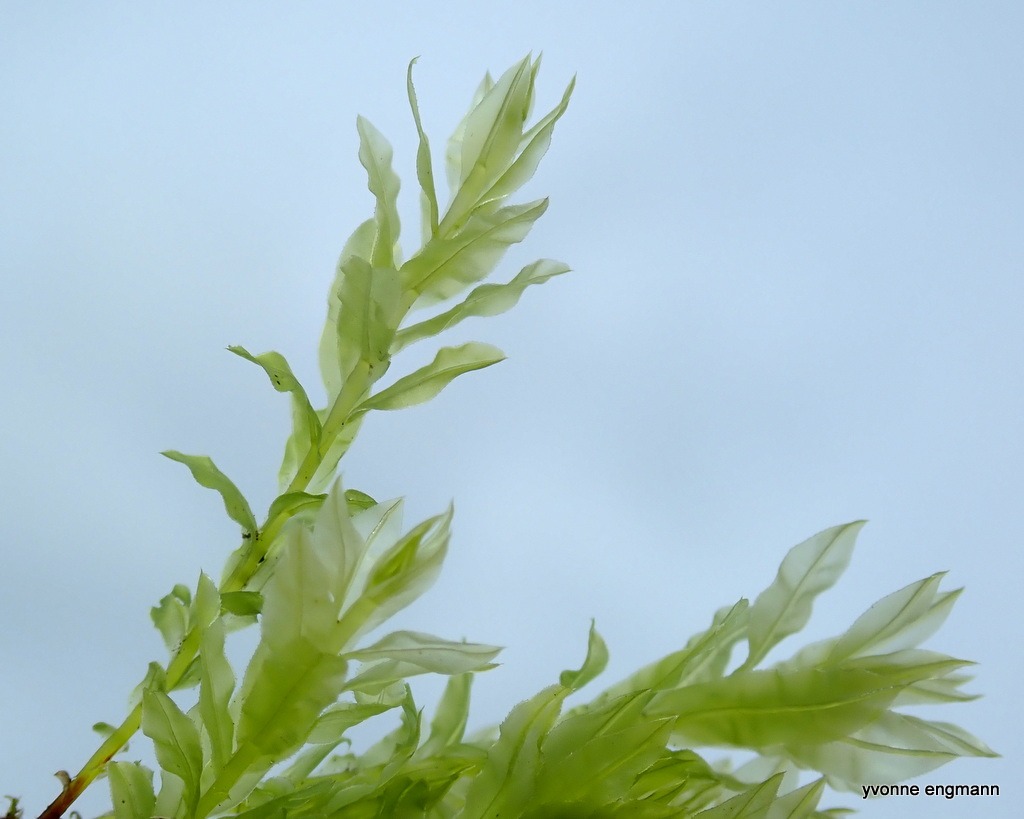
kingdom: Plantae
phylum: Bryophyta
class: Bryopsida
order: Bryales
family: Mniaceae
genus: Plagiomnium
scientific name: Plagiomnium undulatum
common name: Bølget krybstjerne
